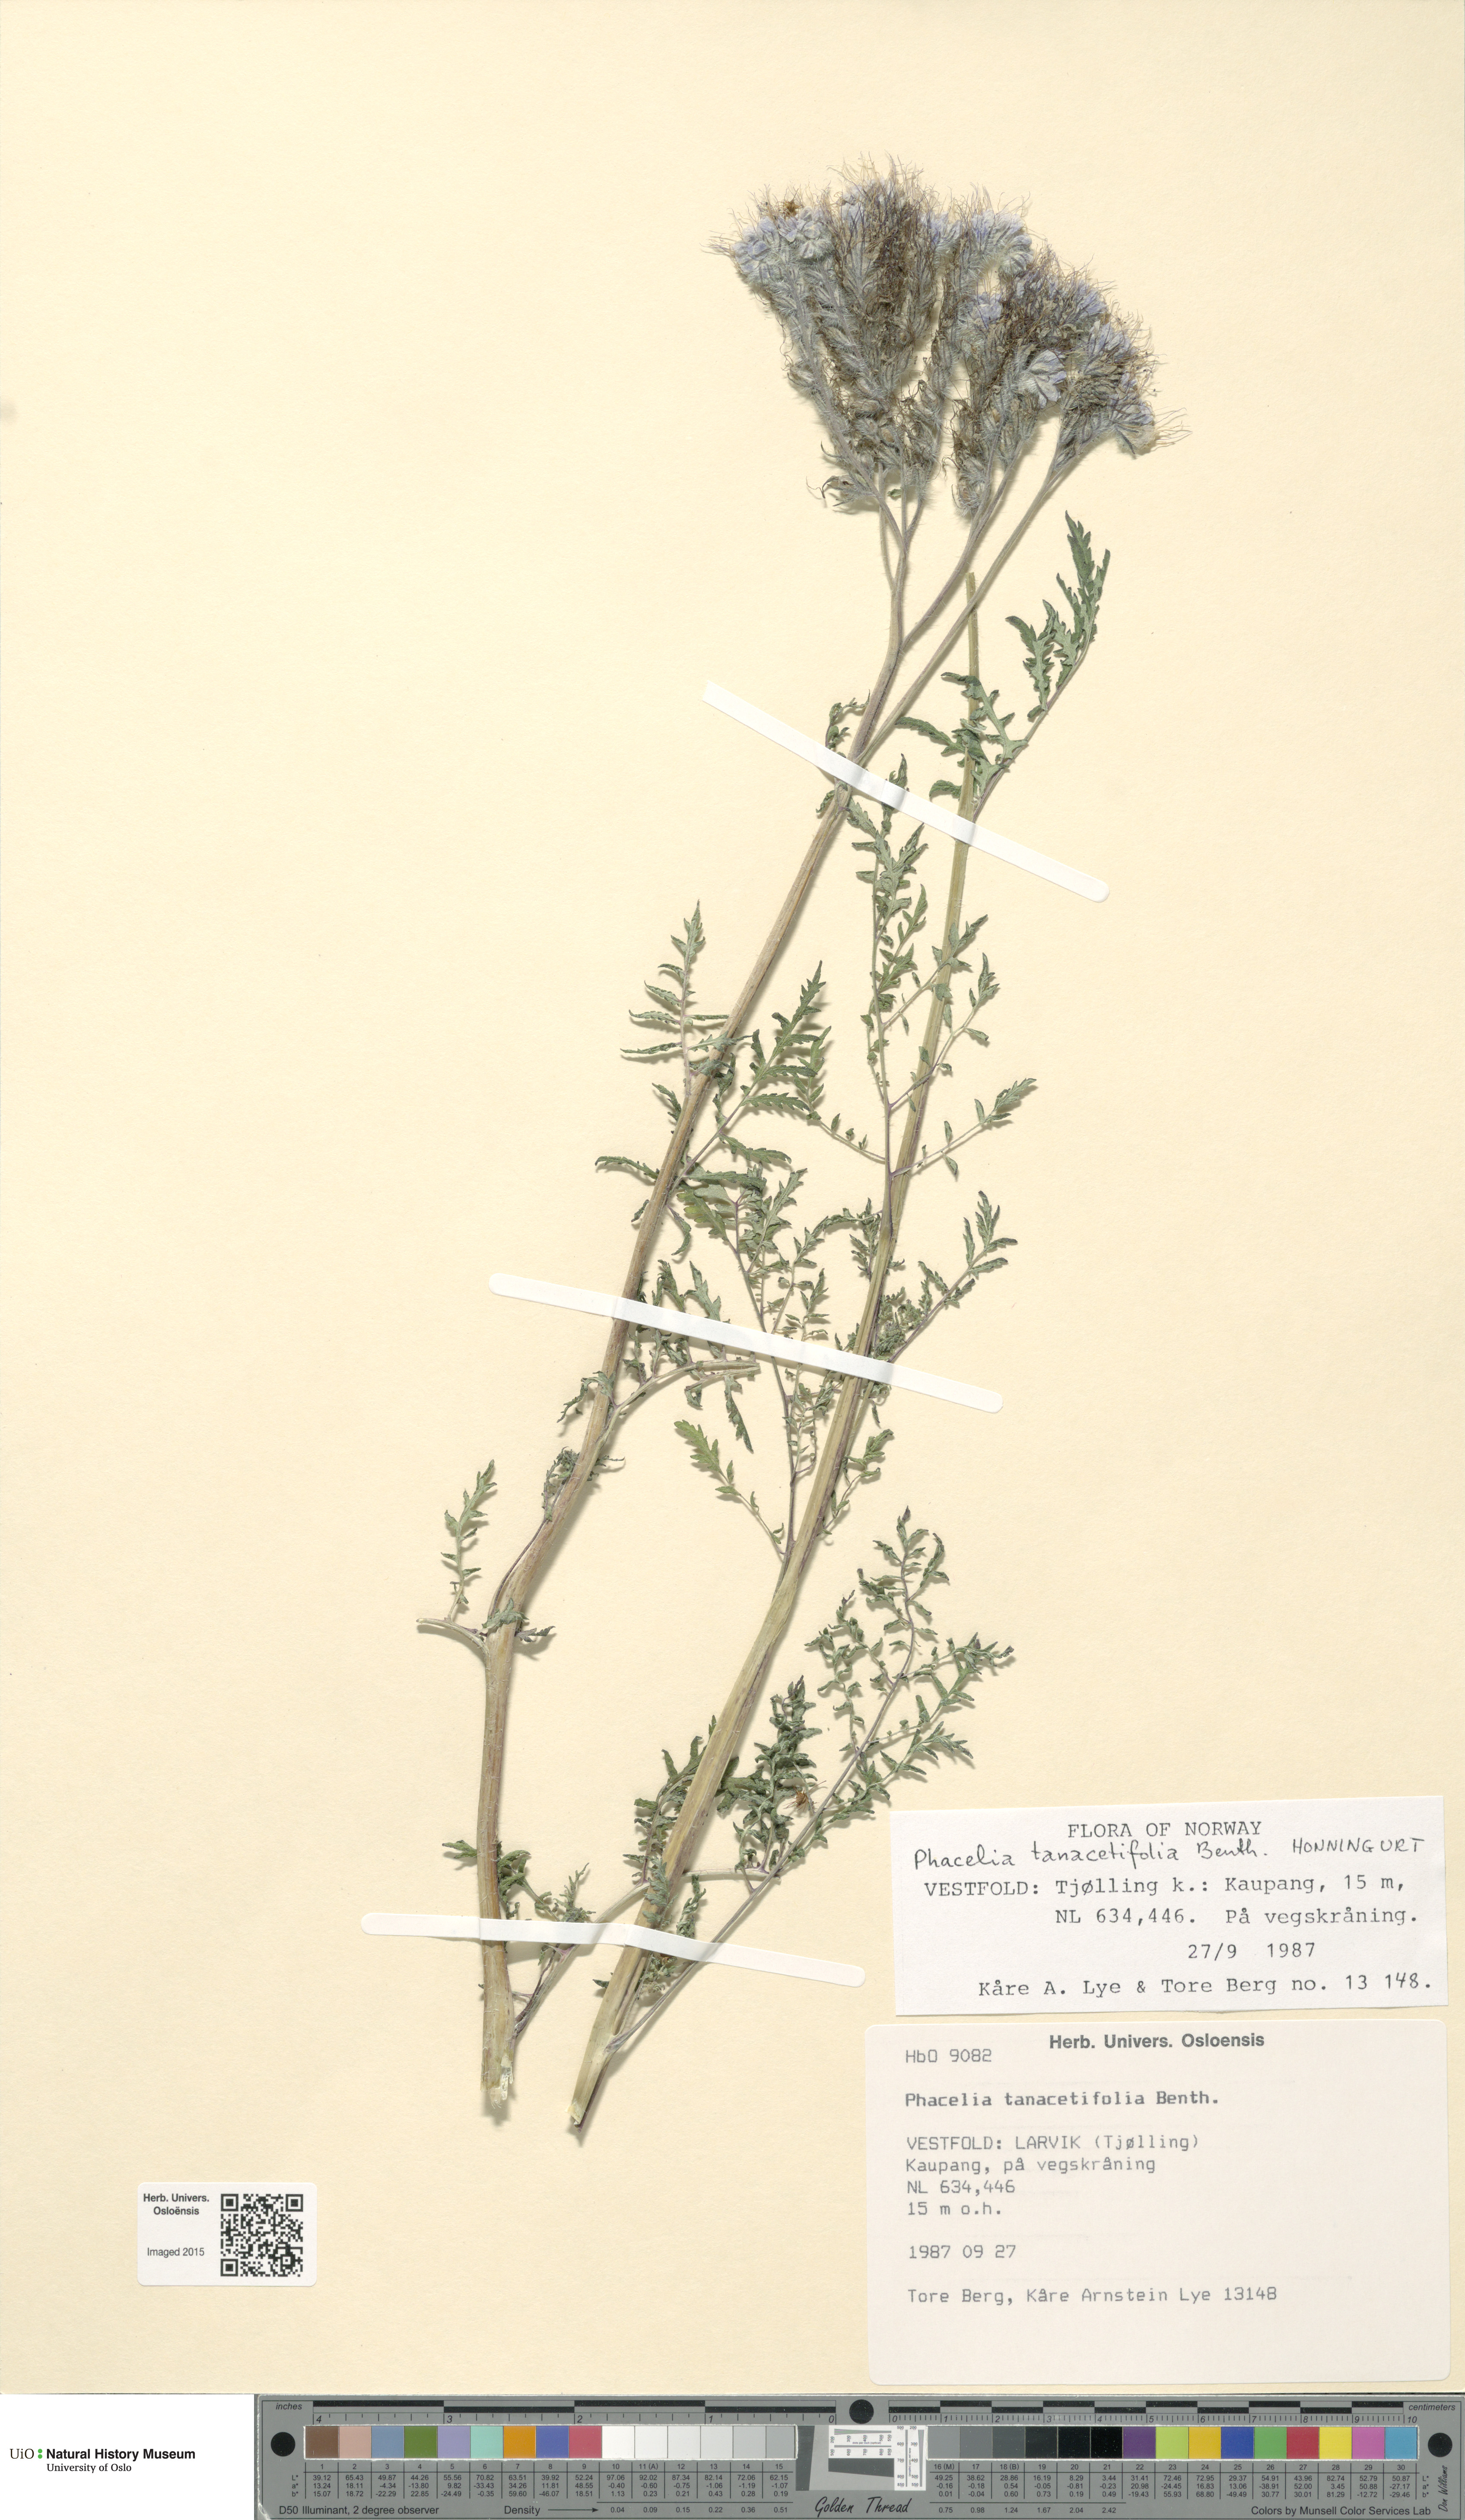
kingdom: Plantae
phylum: Tracheophyta
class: Magnoliopsida
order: Boraginales
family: Hydrophyllaceae
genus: Phacelia
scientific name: Phacelia tanacetifolia
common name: Phacelia
